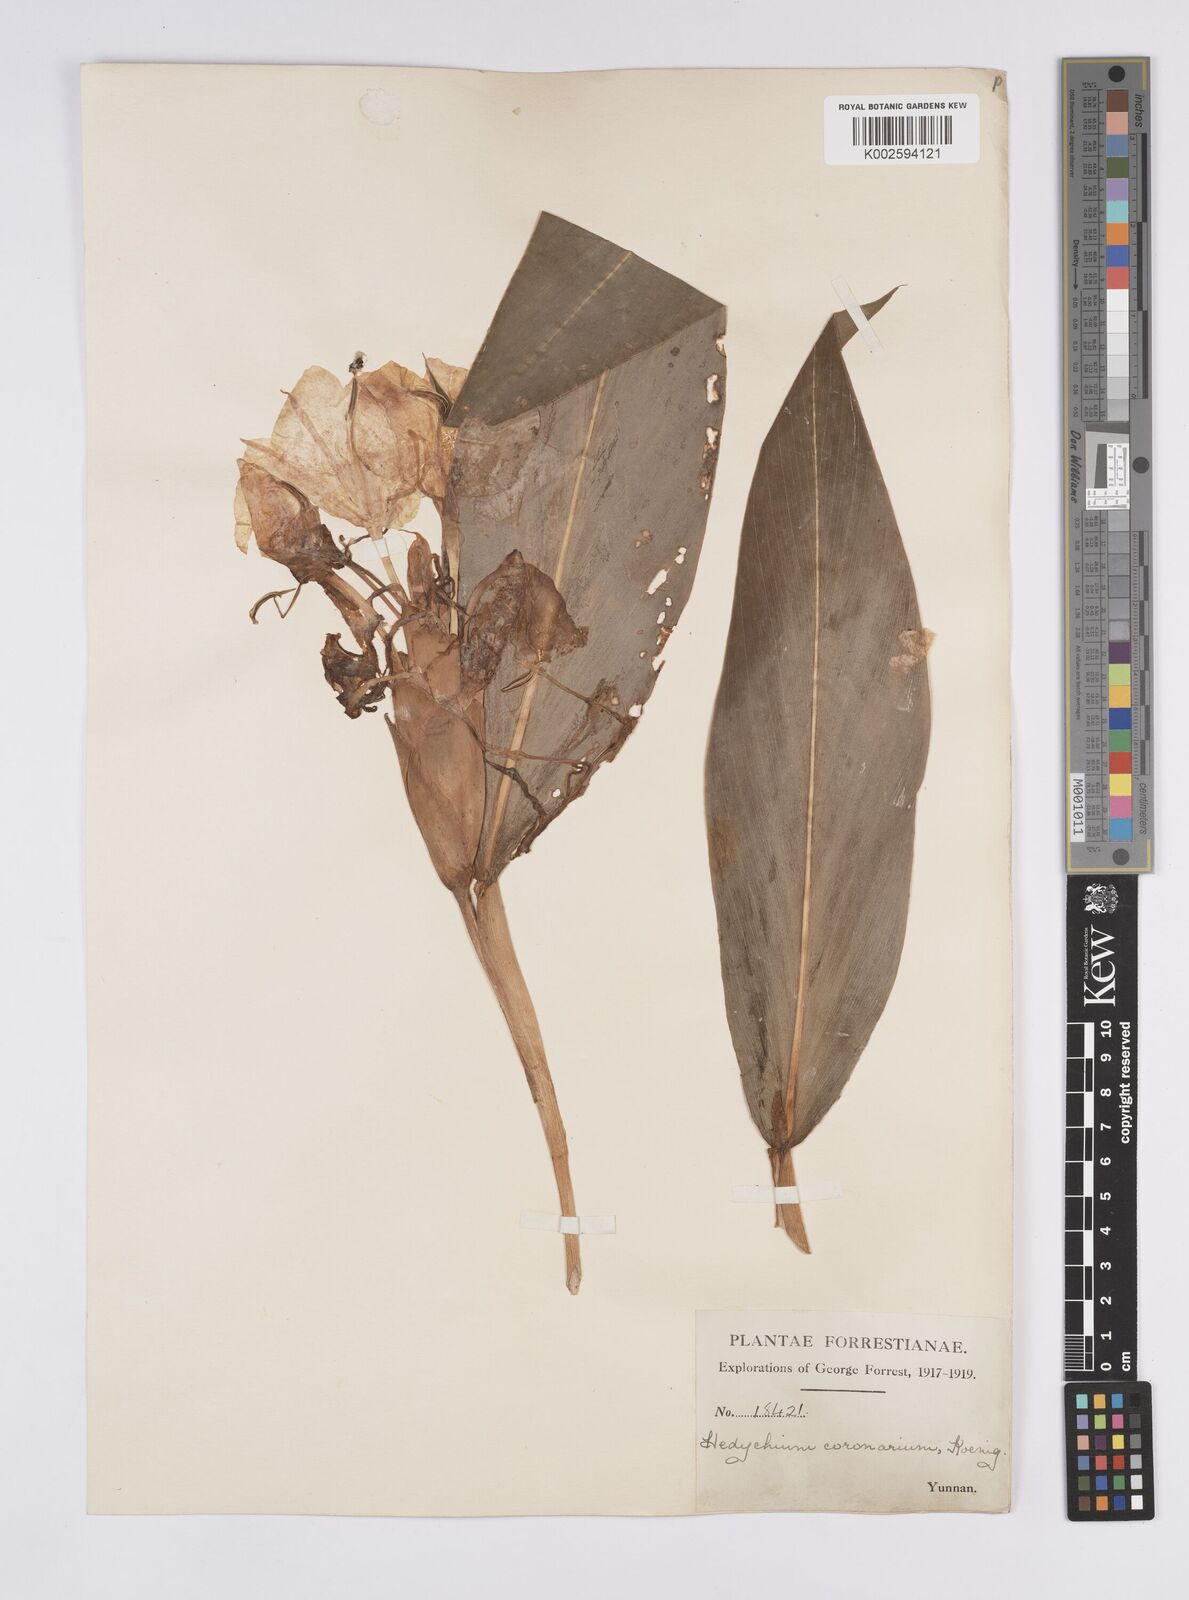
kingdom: Plantae
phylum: Tracheophyta
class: Liliopsida
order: Zingiberales
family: Zingiberaceae
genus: Hedychium
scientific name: Hedychium coronarium
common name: White garland-lily
